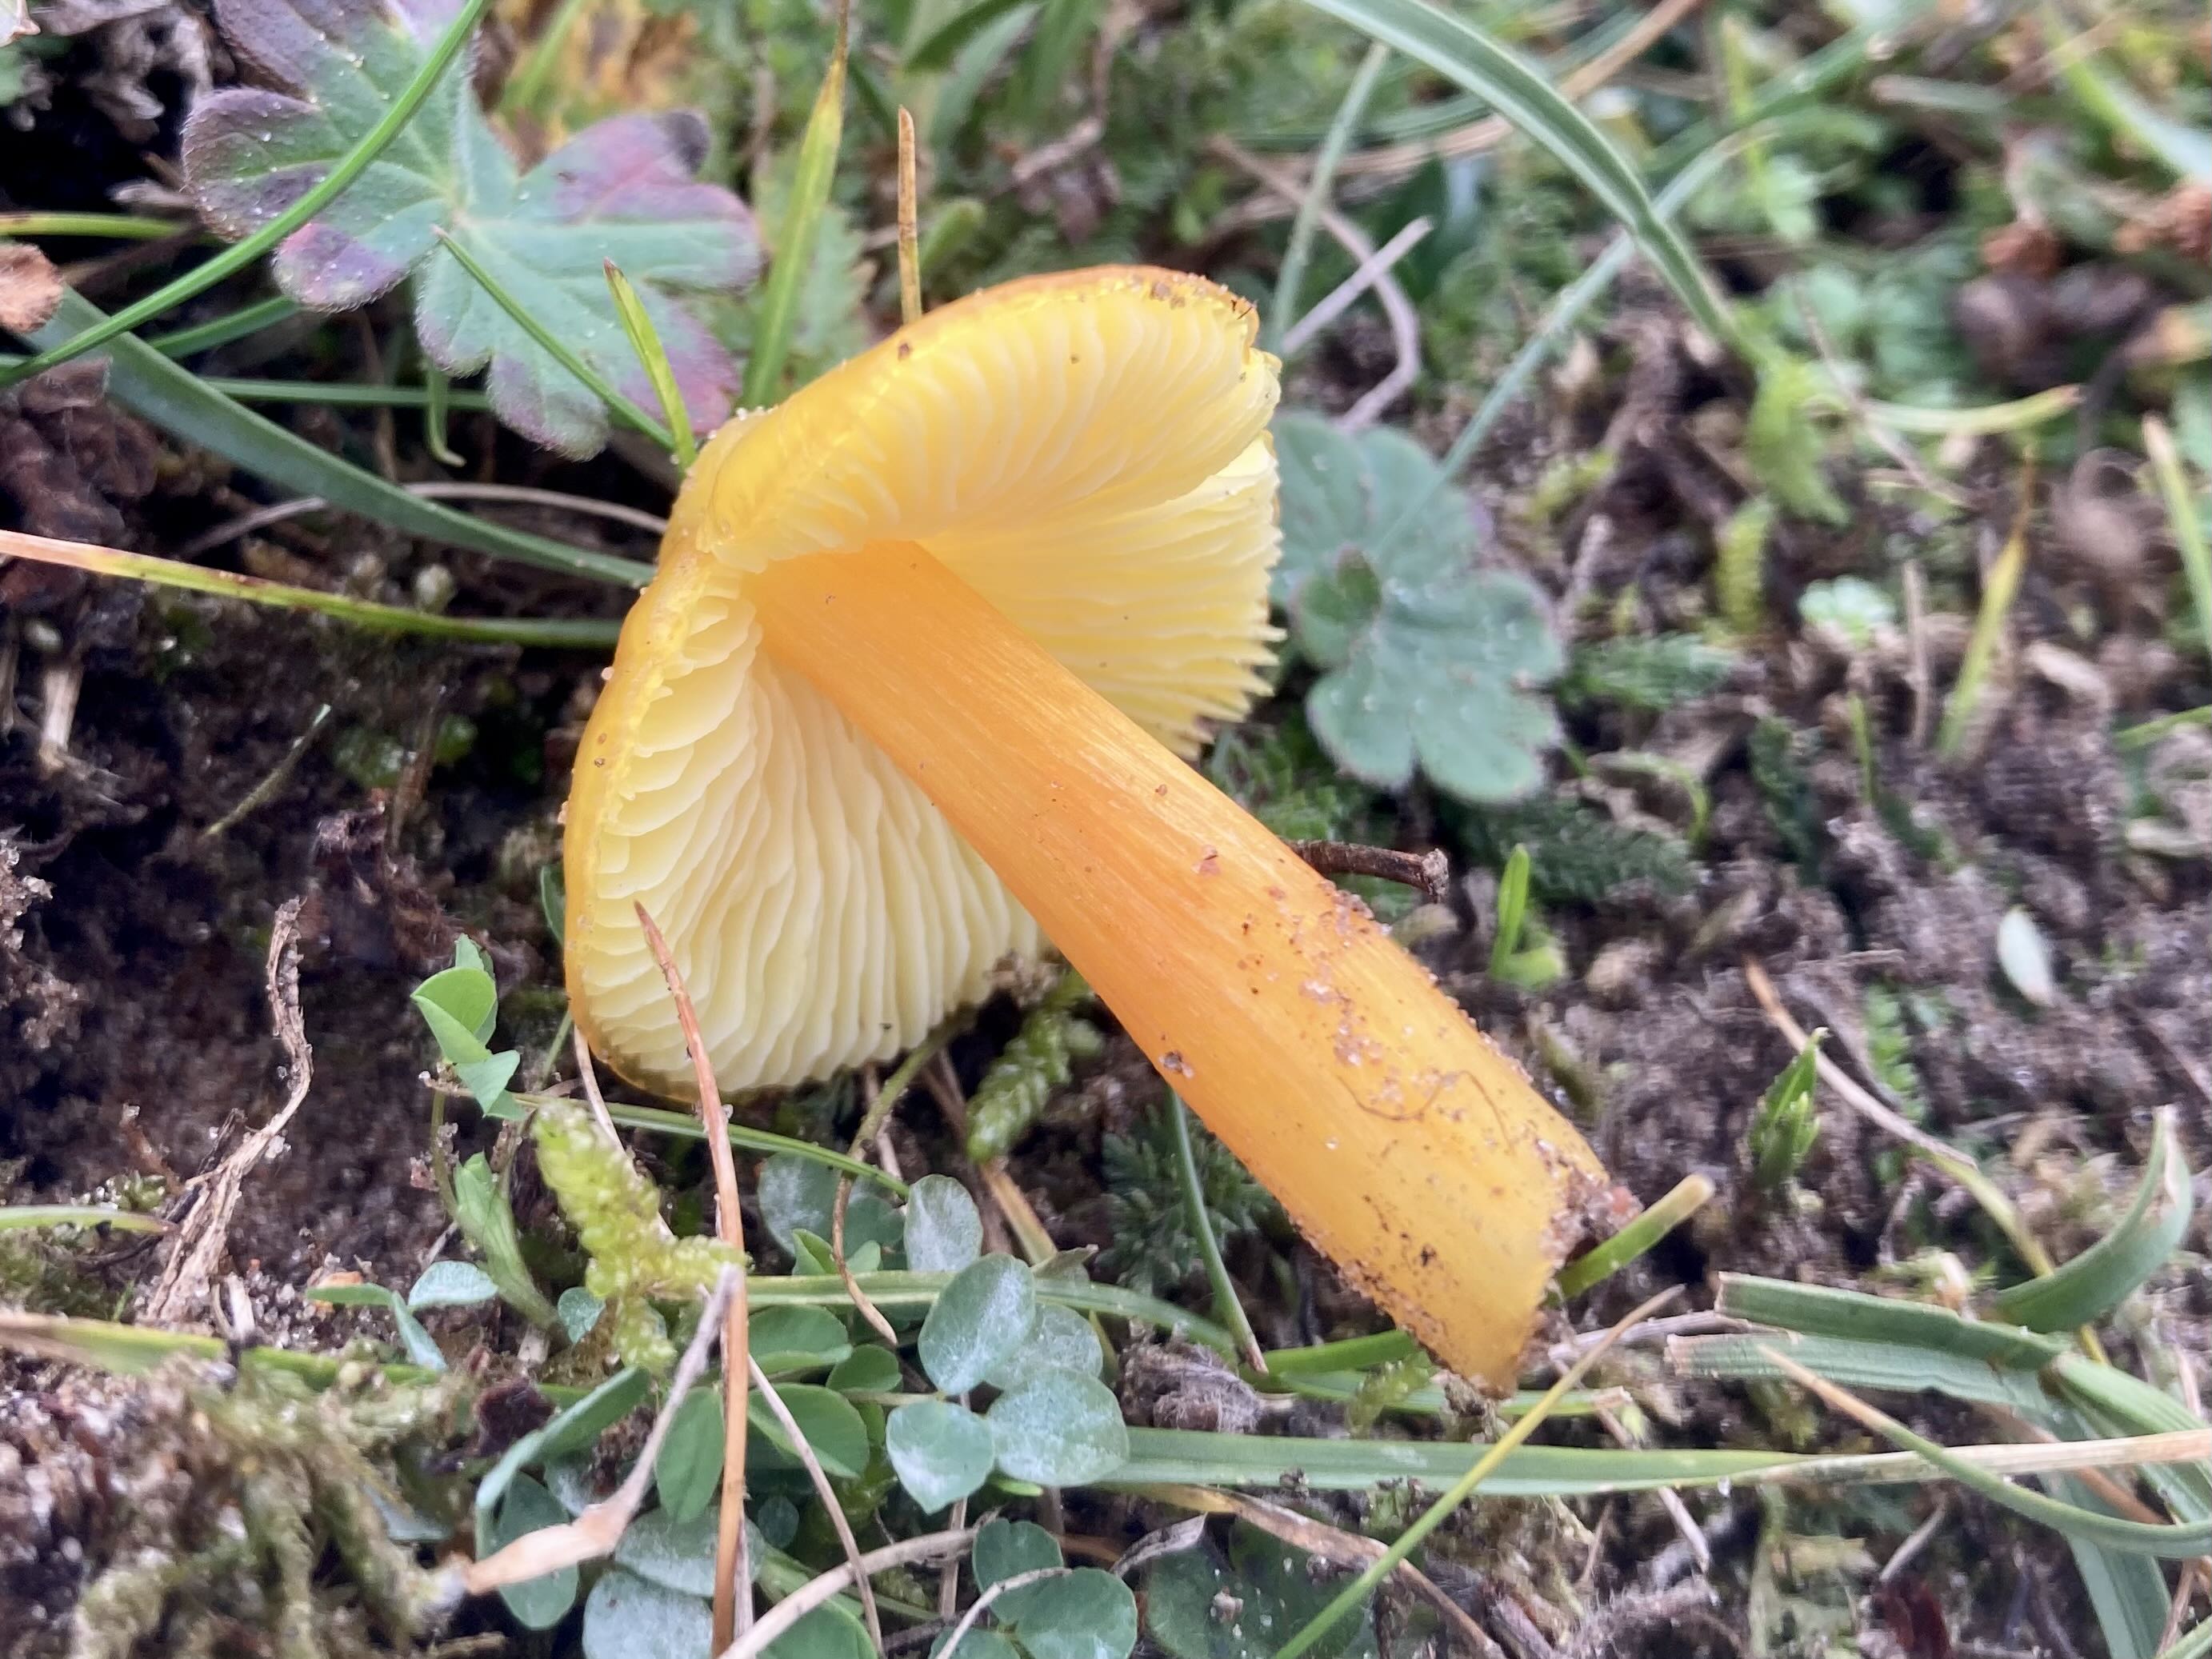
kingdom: Fungi
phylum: Basidiomycota
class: Agaricomycetes
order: Agaricales
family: Hygrophoraceae
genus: Hygrocybe
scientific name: Hygrocybe chlorophana
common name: gul vokshat
